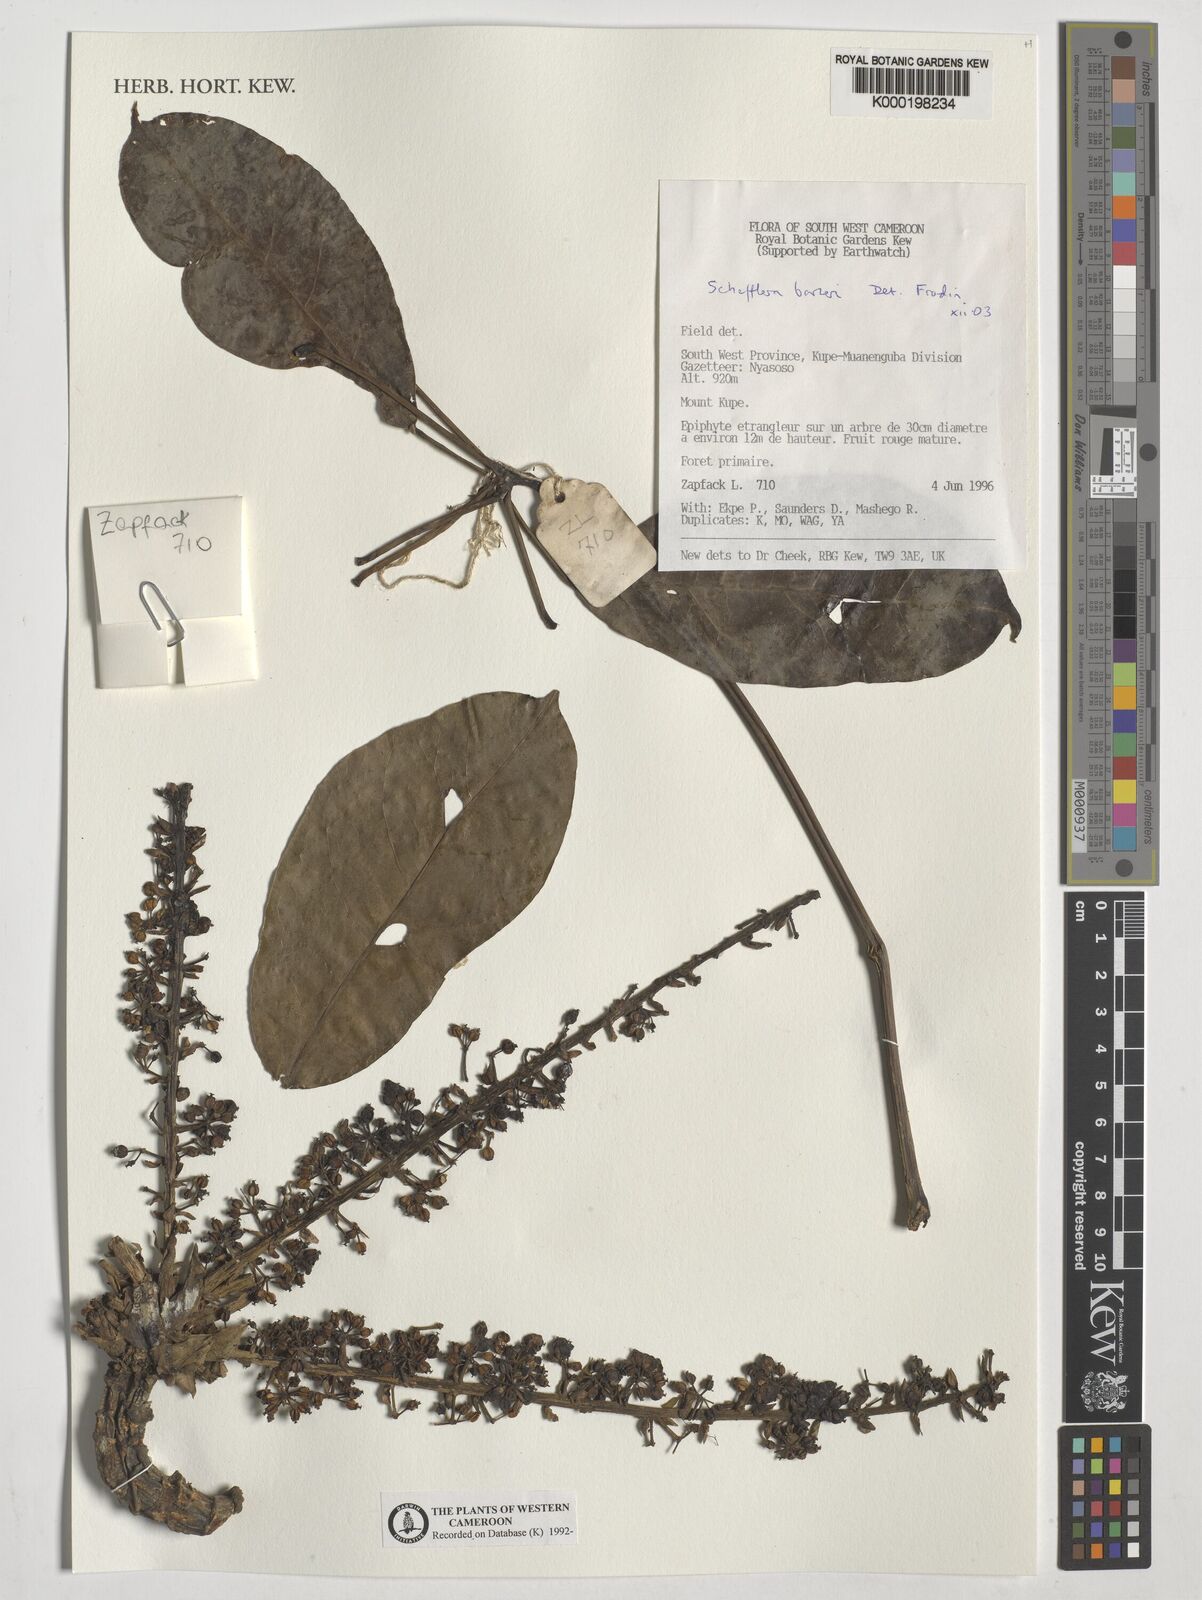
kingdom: Plantae
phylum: Tracheophyta
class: Magnoliopsida
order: Apiales
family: Araliaceae
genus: Astropanax
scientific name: Astropanax barteri
